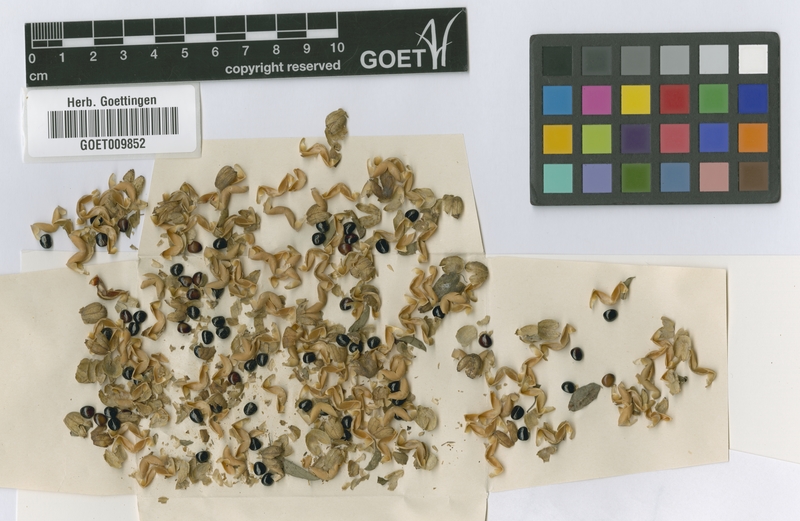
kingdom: Plantae
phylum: Tracheophyta
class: Magnoliopsida
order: Rosales
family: Rhamnaceae
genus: Helinus
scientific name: Helinus integrifolius
